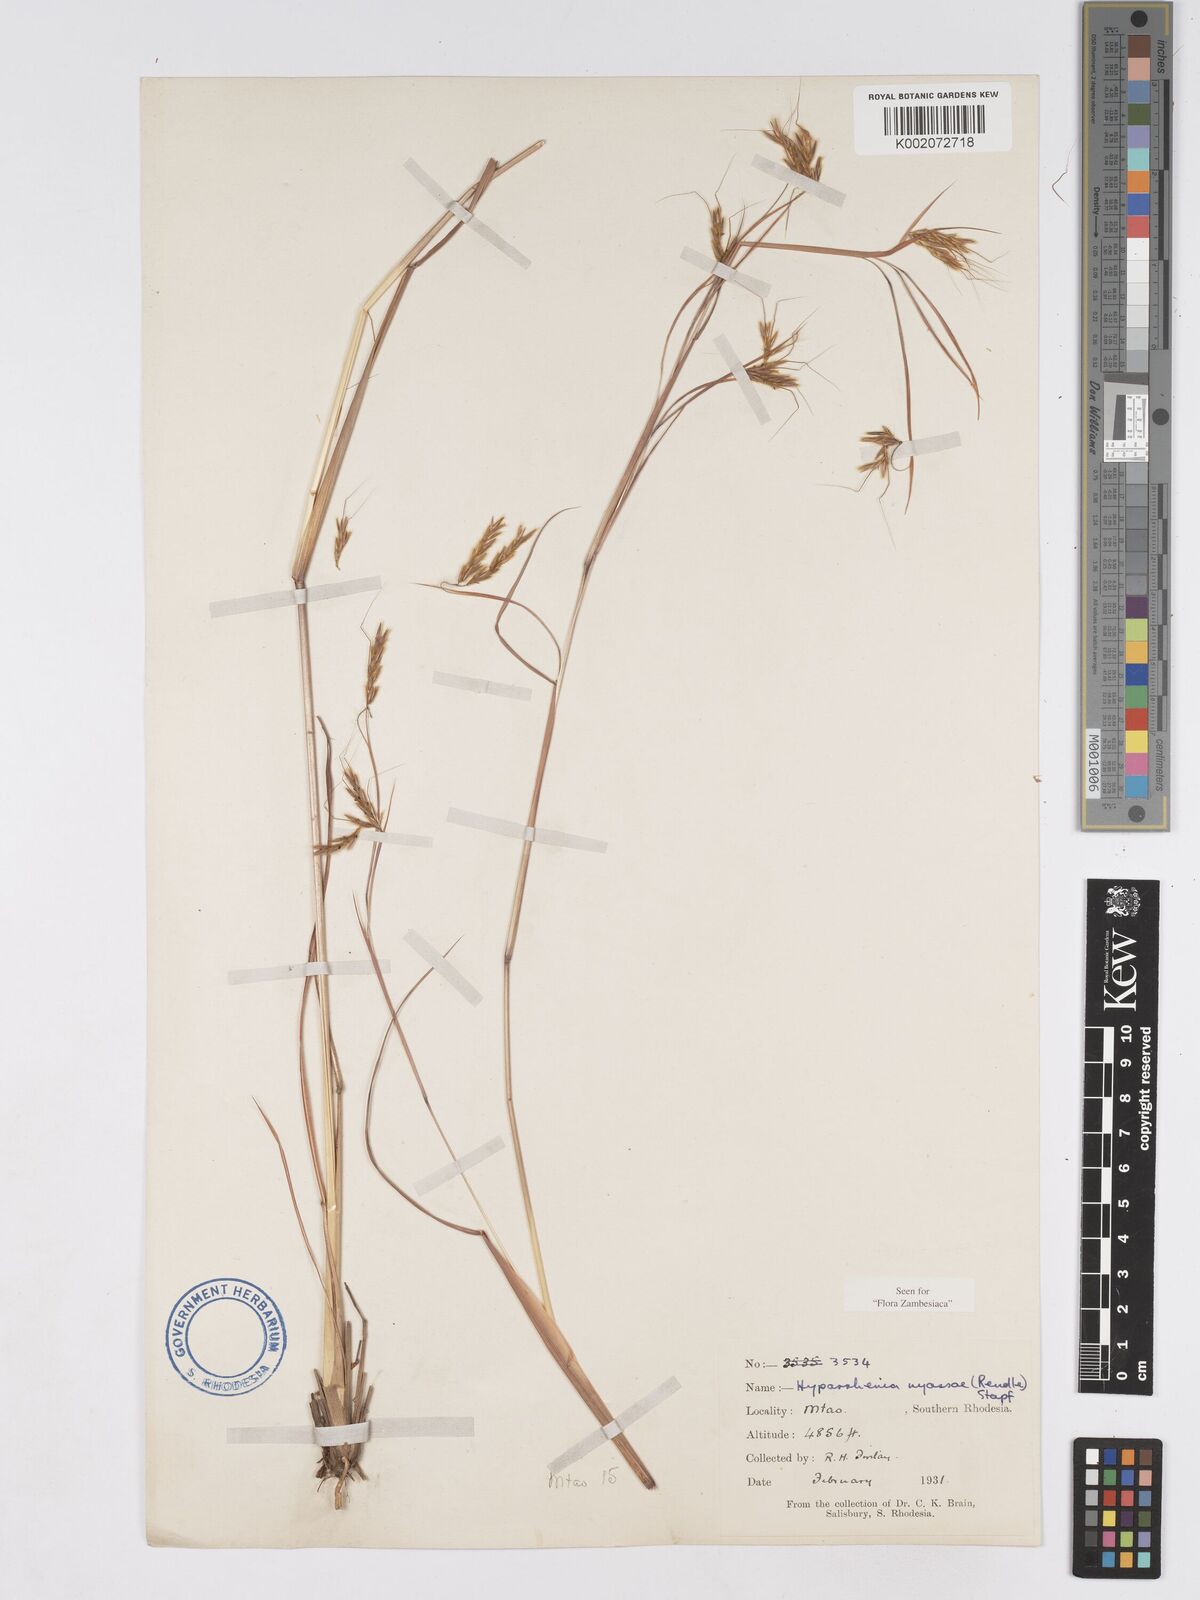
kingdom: Plantae
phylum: Tracheophyta
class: Liliopsida
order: Poales
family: Poaceae
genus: Hyparrhenia
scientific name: Hyparrhenia nyassae
